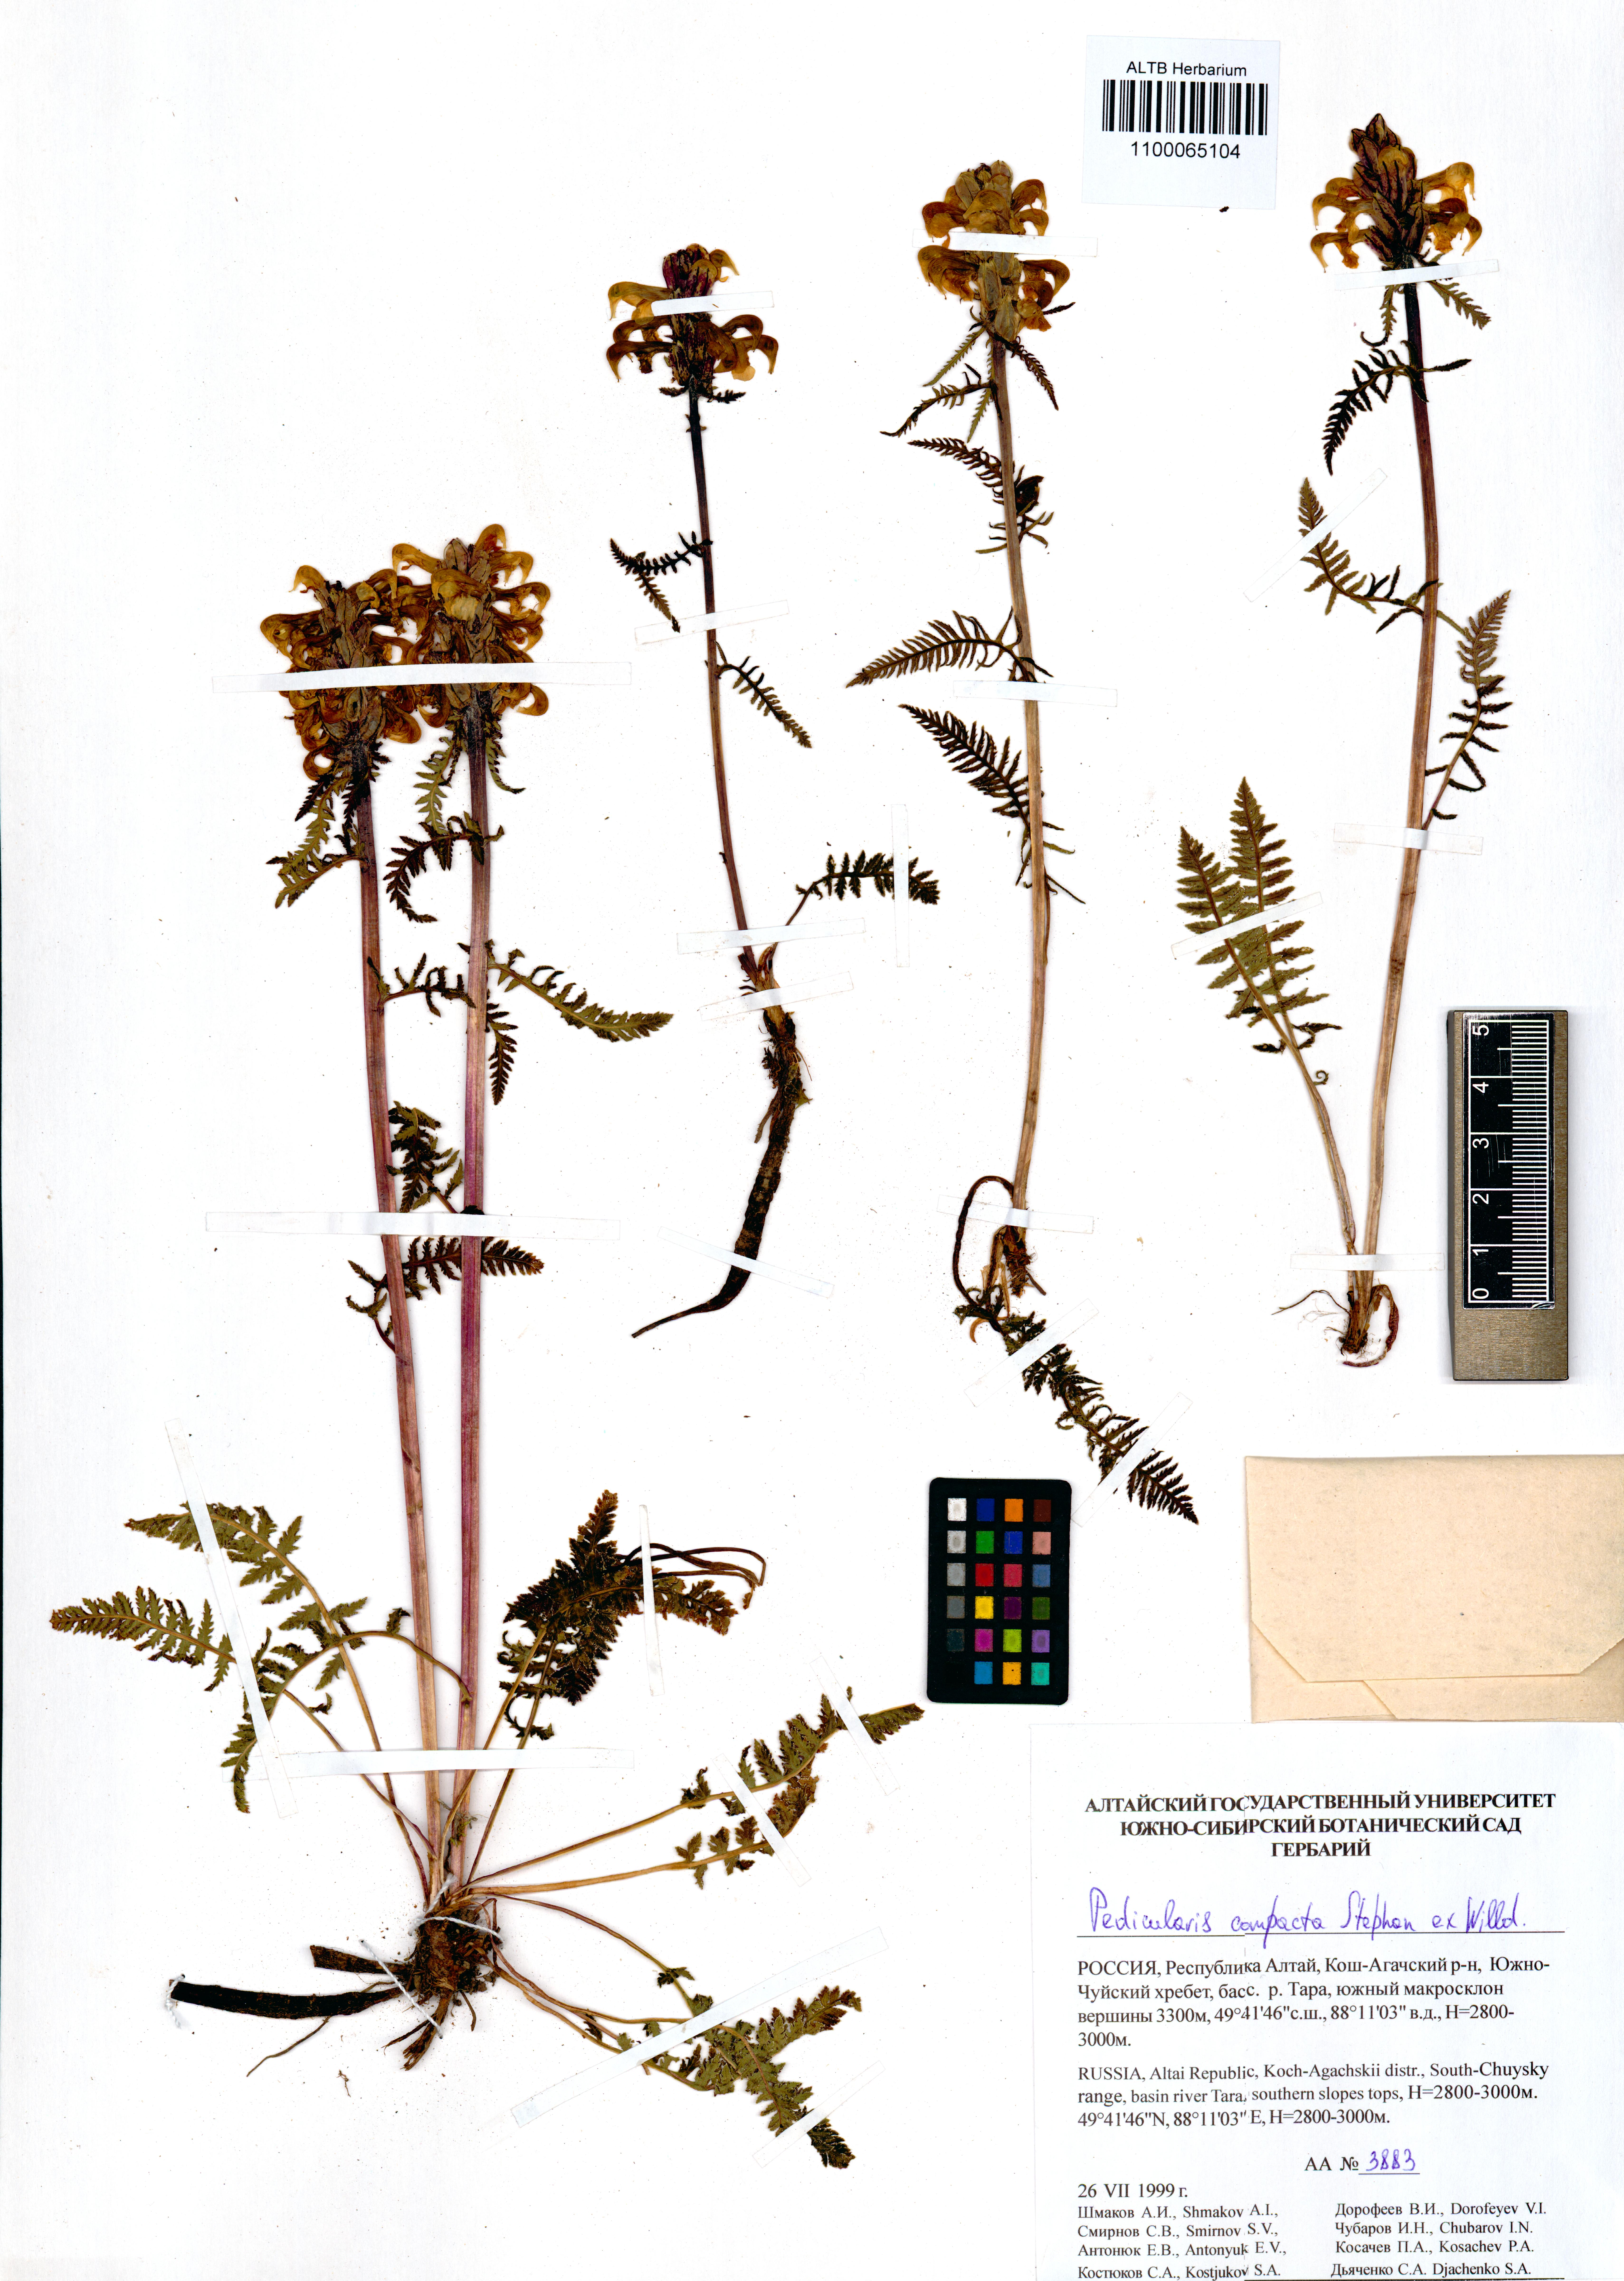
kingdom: Plantae
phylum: Tracheophyta
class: Magnoliopsida
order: Lamiales
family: Orobanchaceae
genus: Pedicularis
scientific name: Pedicularis compacta
